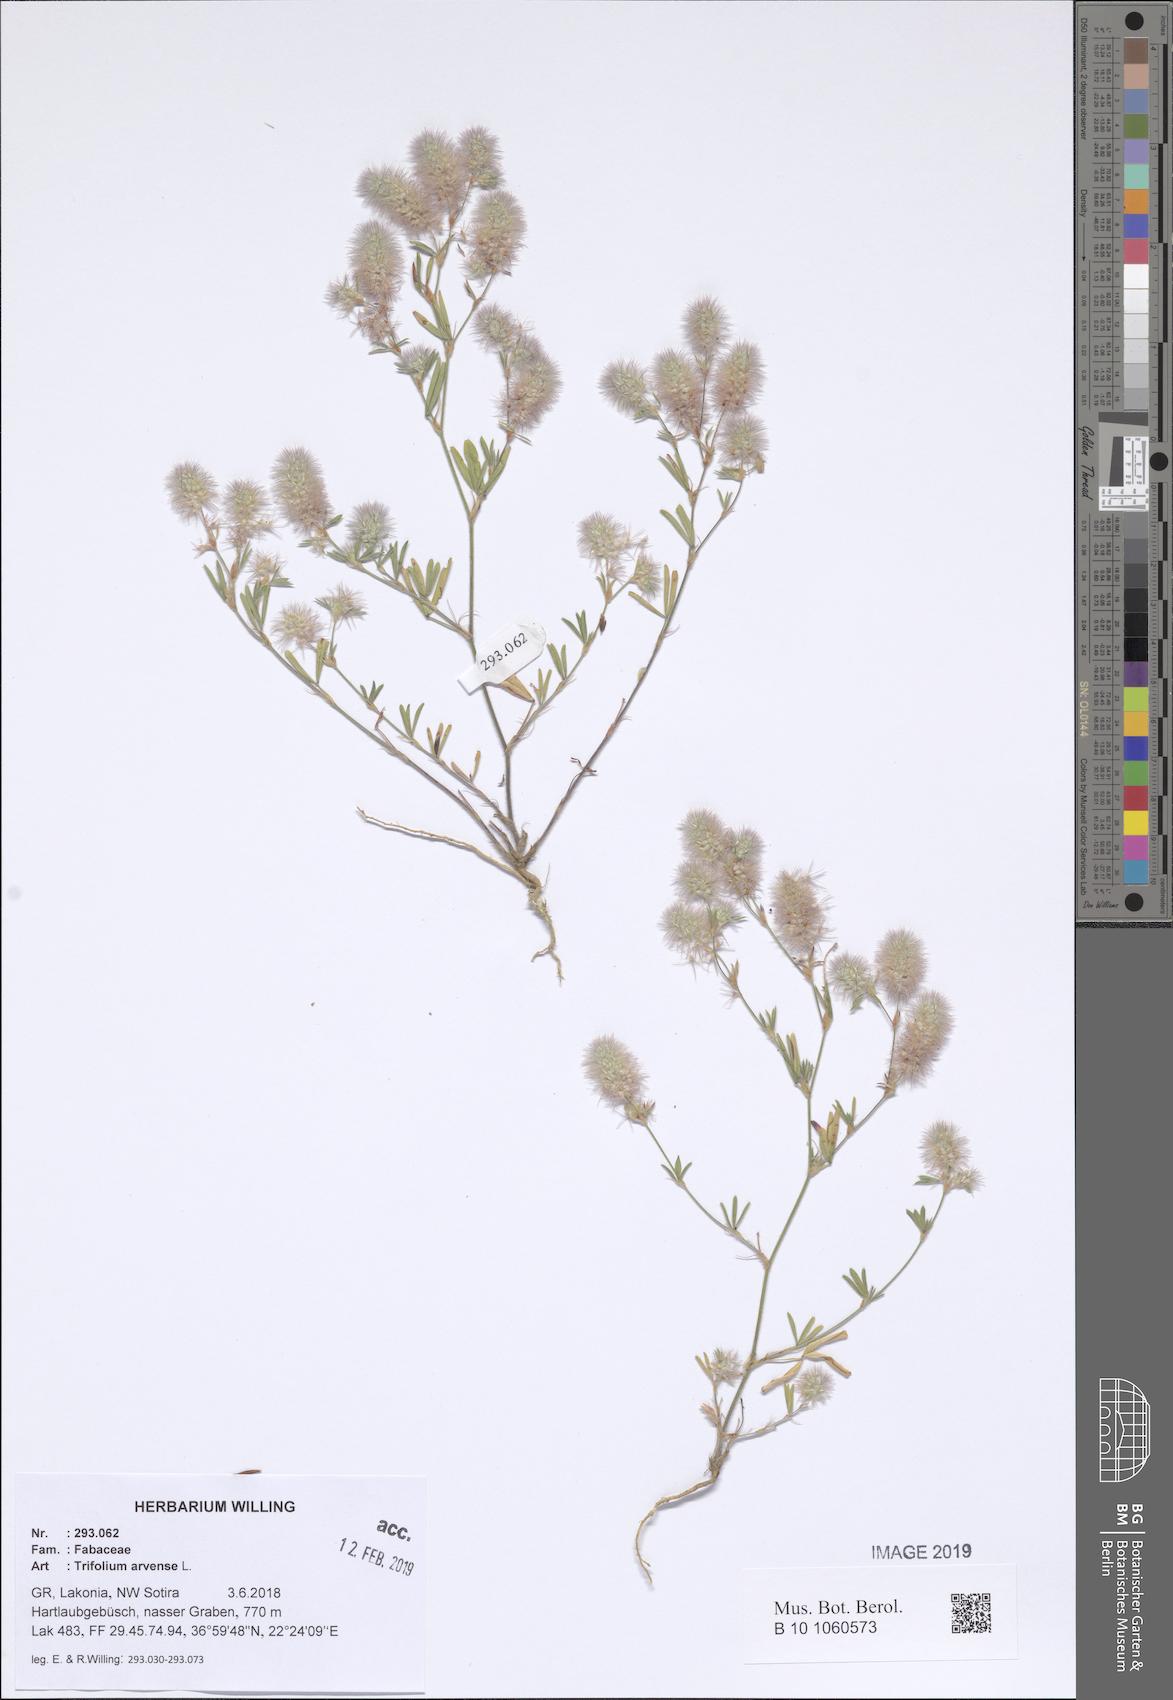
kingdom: Plantae
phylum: Tracheophyta
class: Magnoliopsida
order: Fabales
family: Fabaceae
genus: Trifolium
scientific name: Trifolium arvense
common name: Hare's-foot clover
